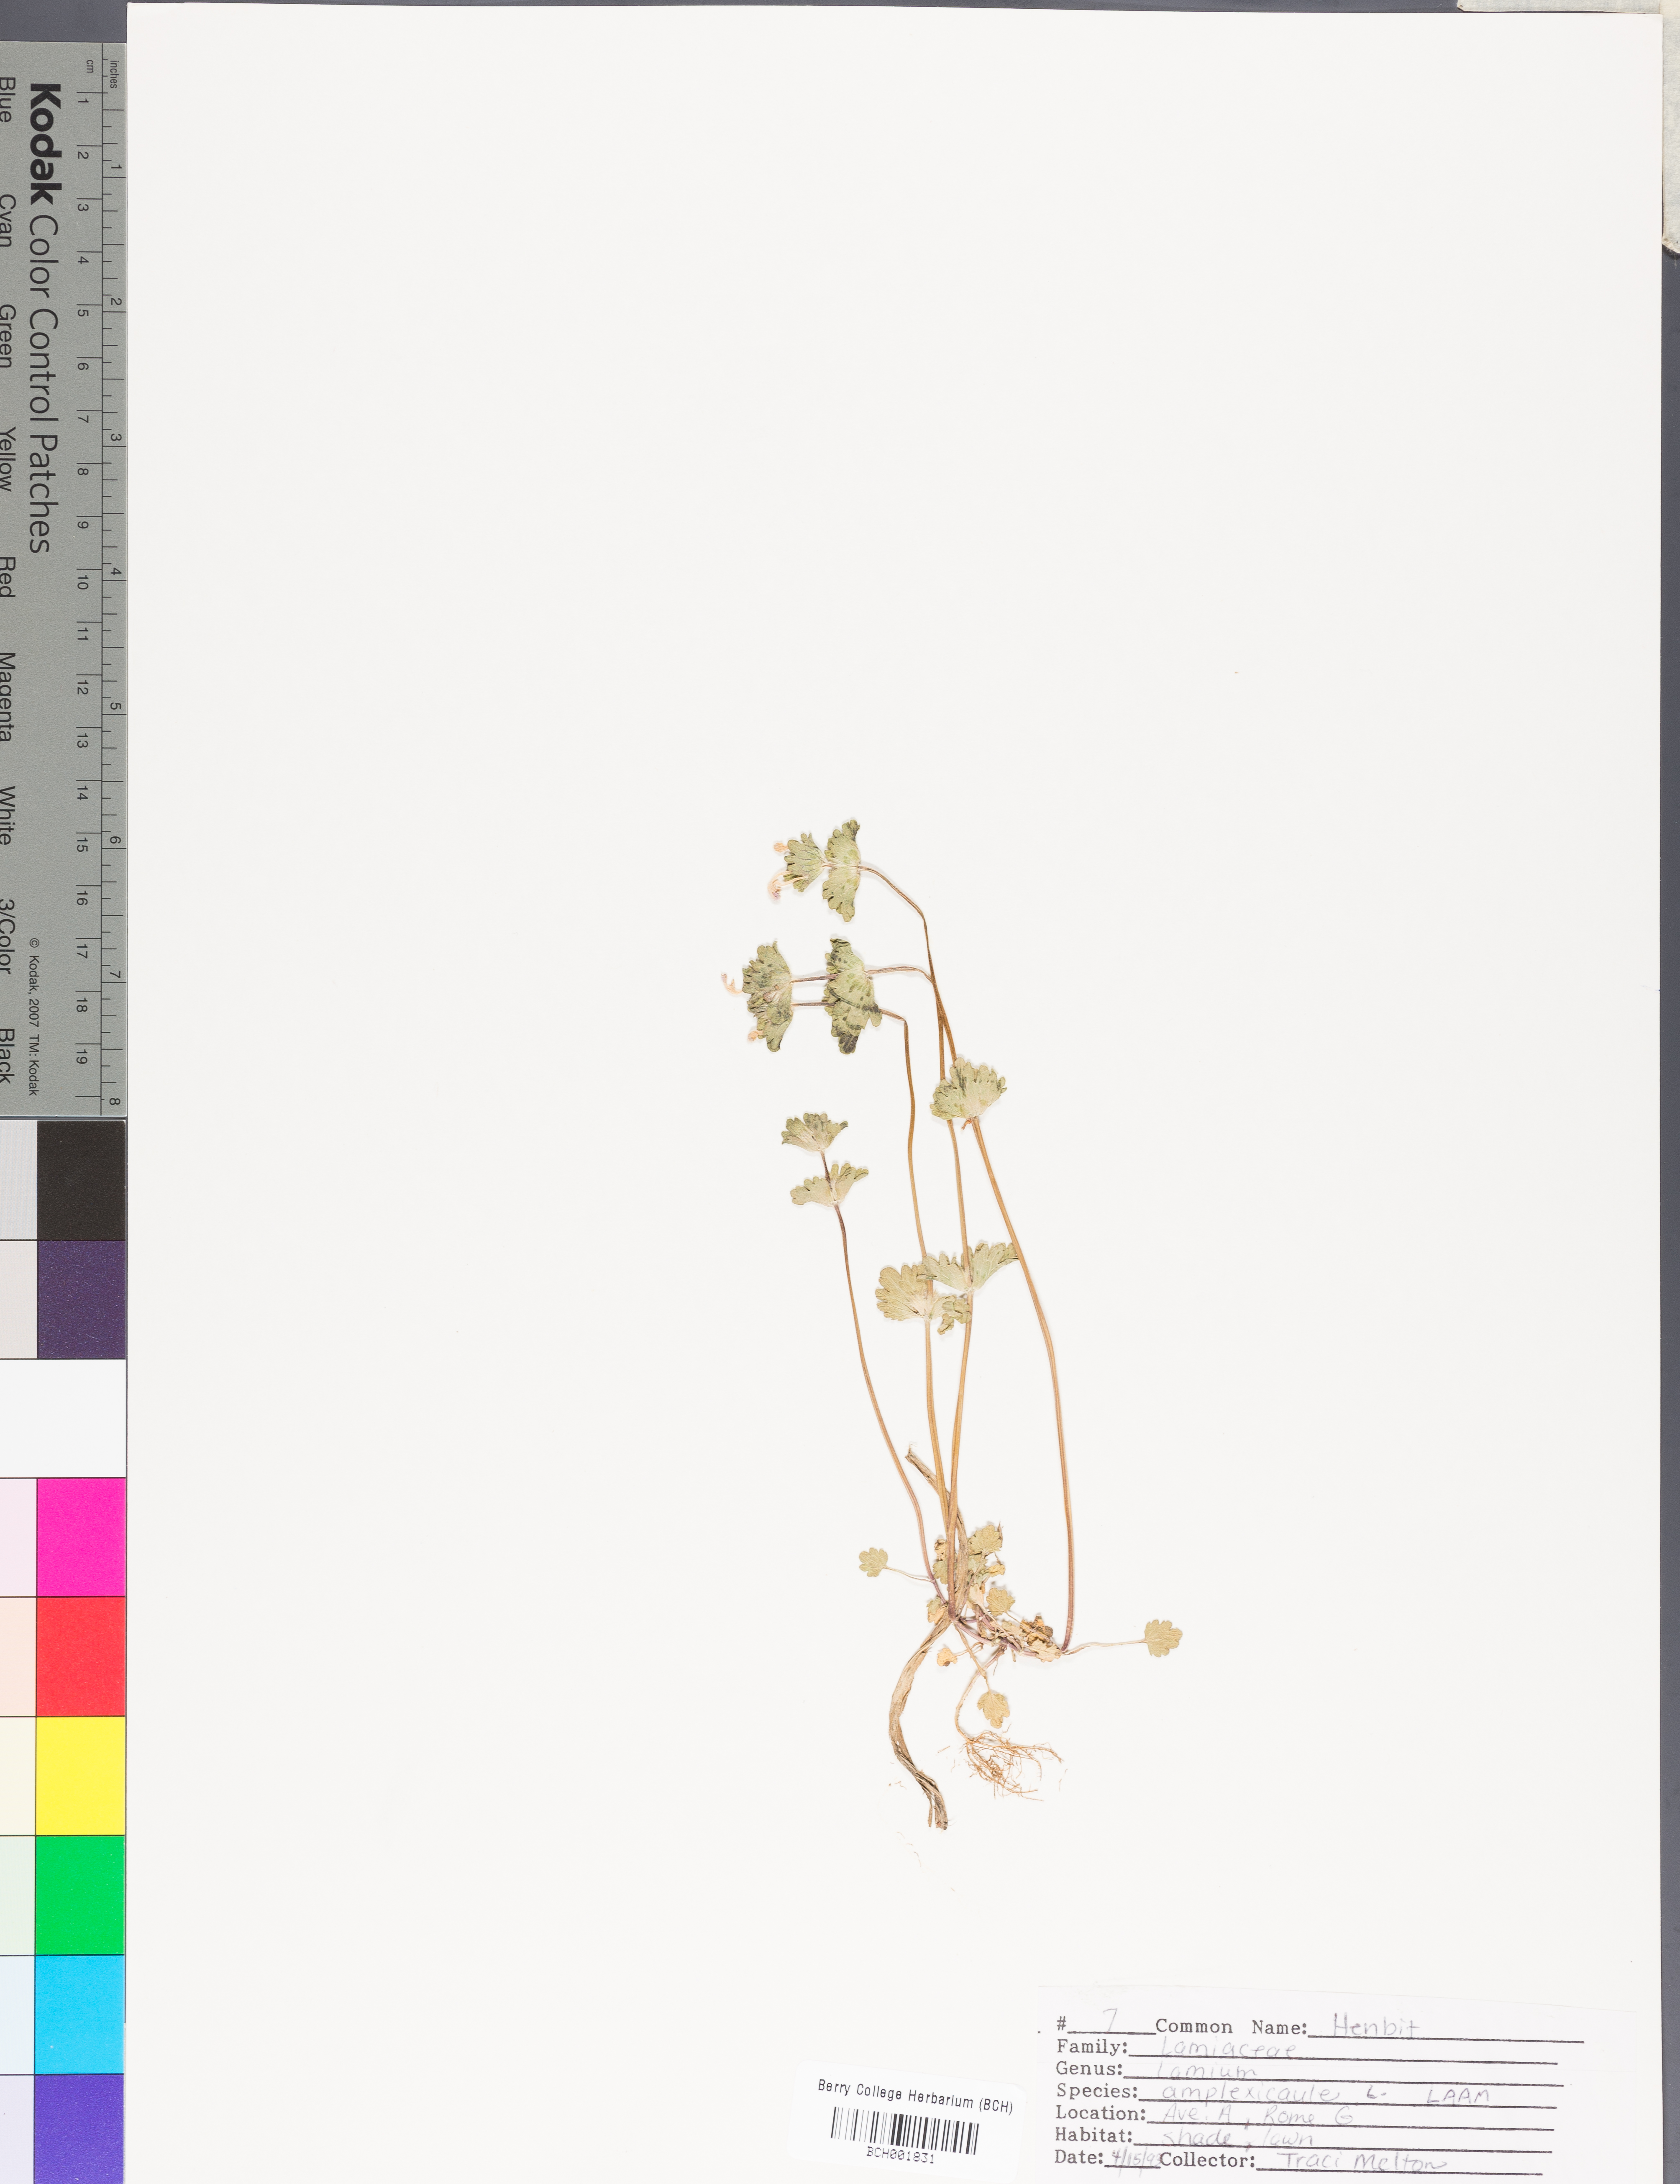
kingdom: Plantae
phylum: Tracheophyta
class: Magnoliopsida
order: Lamiales
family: Lamiaceae
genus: Lamium
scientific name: Lamium amplexicaule
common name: Henbit dead-nettle
